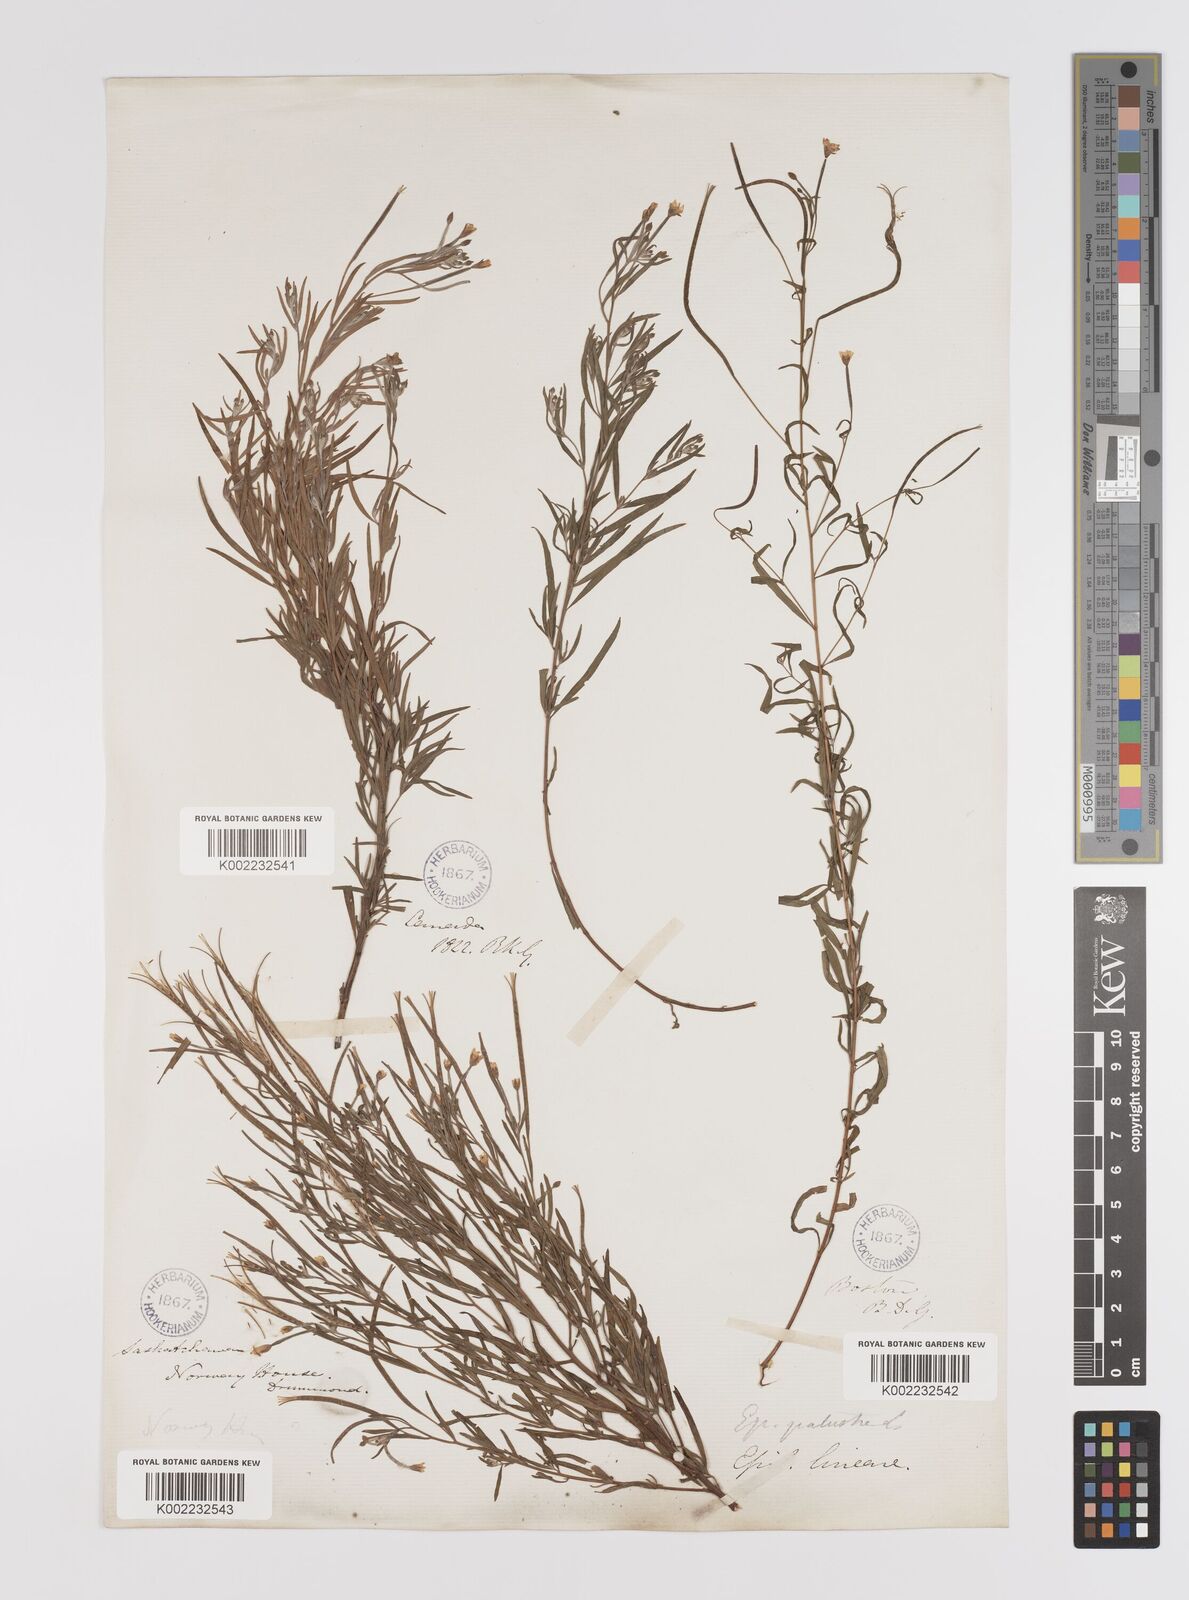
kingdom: Plantae
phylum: Tracheophyta
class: Magnoliopsida
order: Myrtales
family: Onagraceae
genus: Epilobium
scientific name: Epilobium palustre
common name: Marsh willowherb
